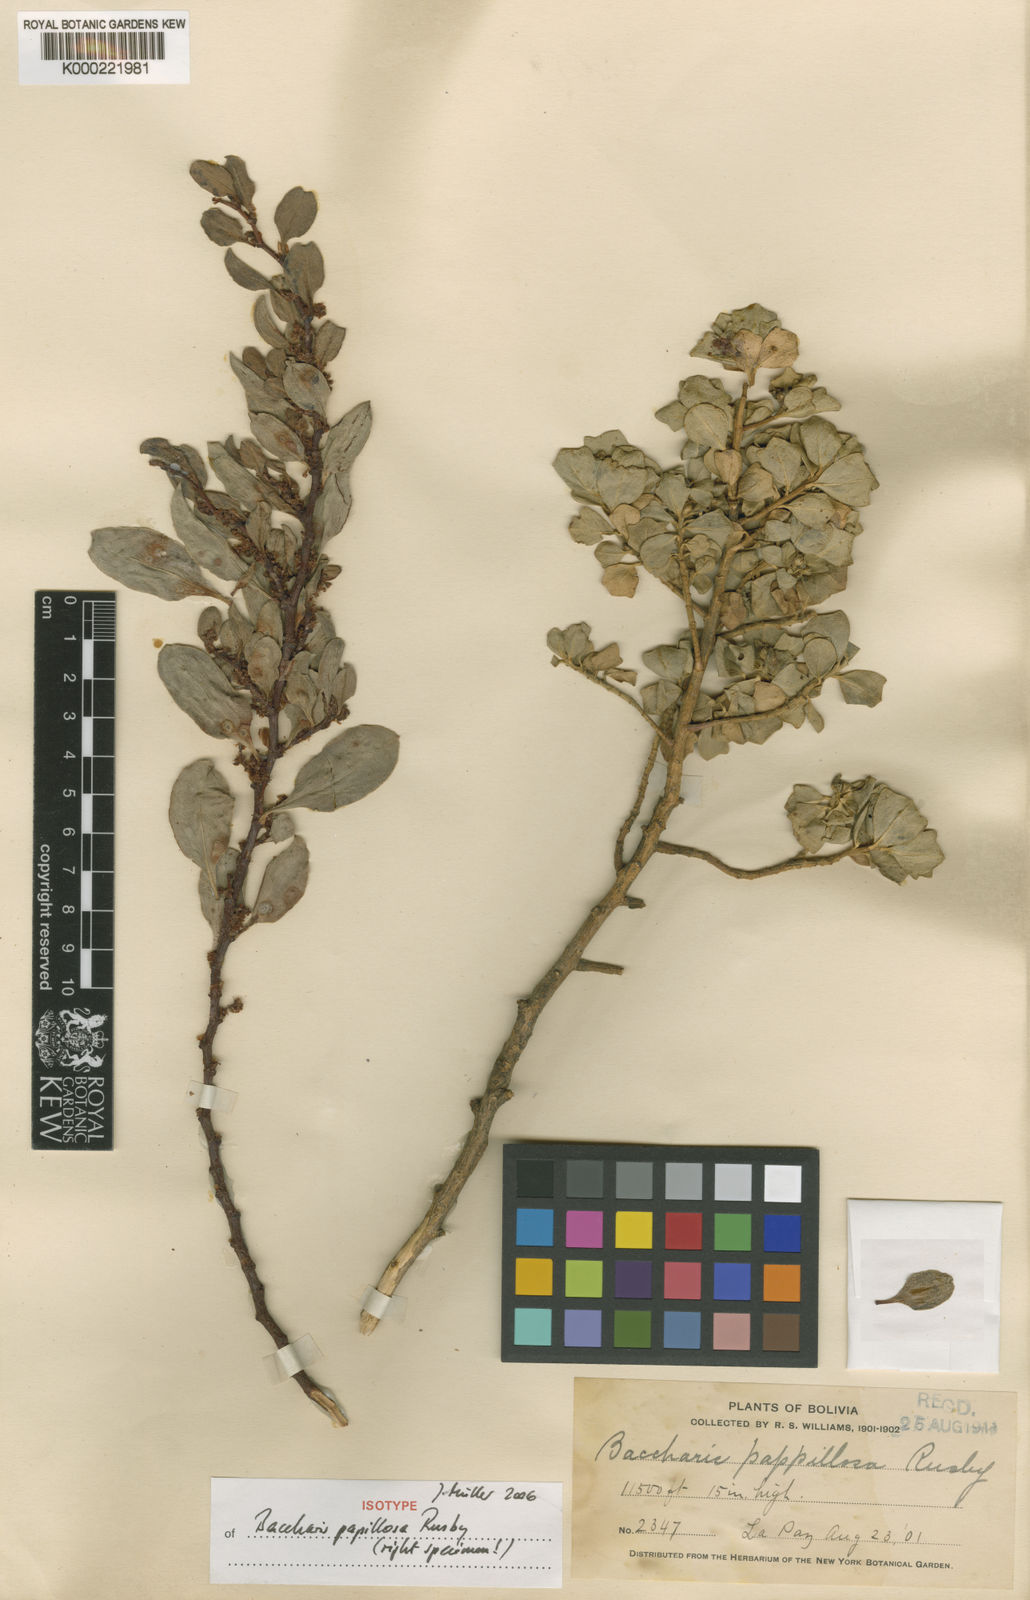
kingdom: Plantae
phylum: Tracheophyta
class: Magnoliopsida
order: Asterales
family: Asteraceae
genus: Baccharis
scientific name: Baccharis papillosa
